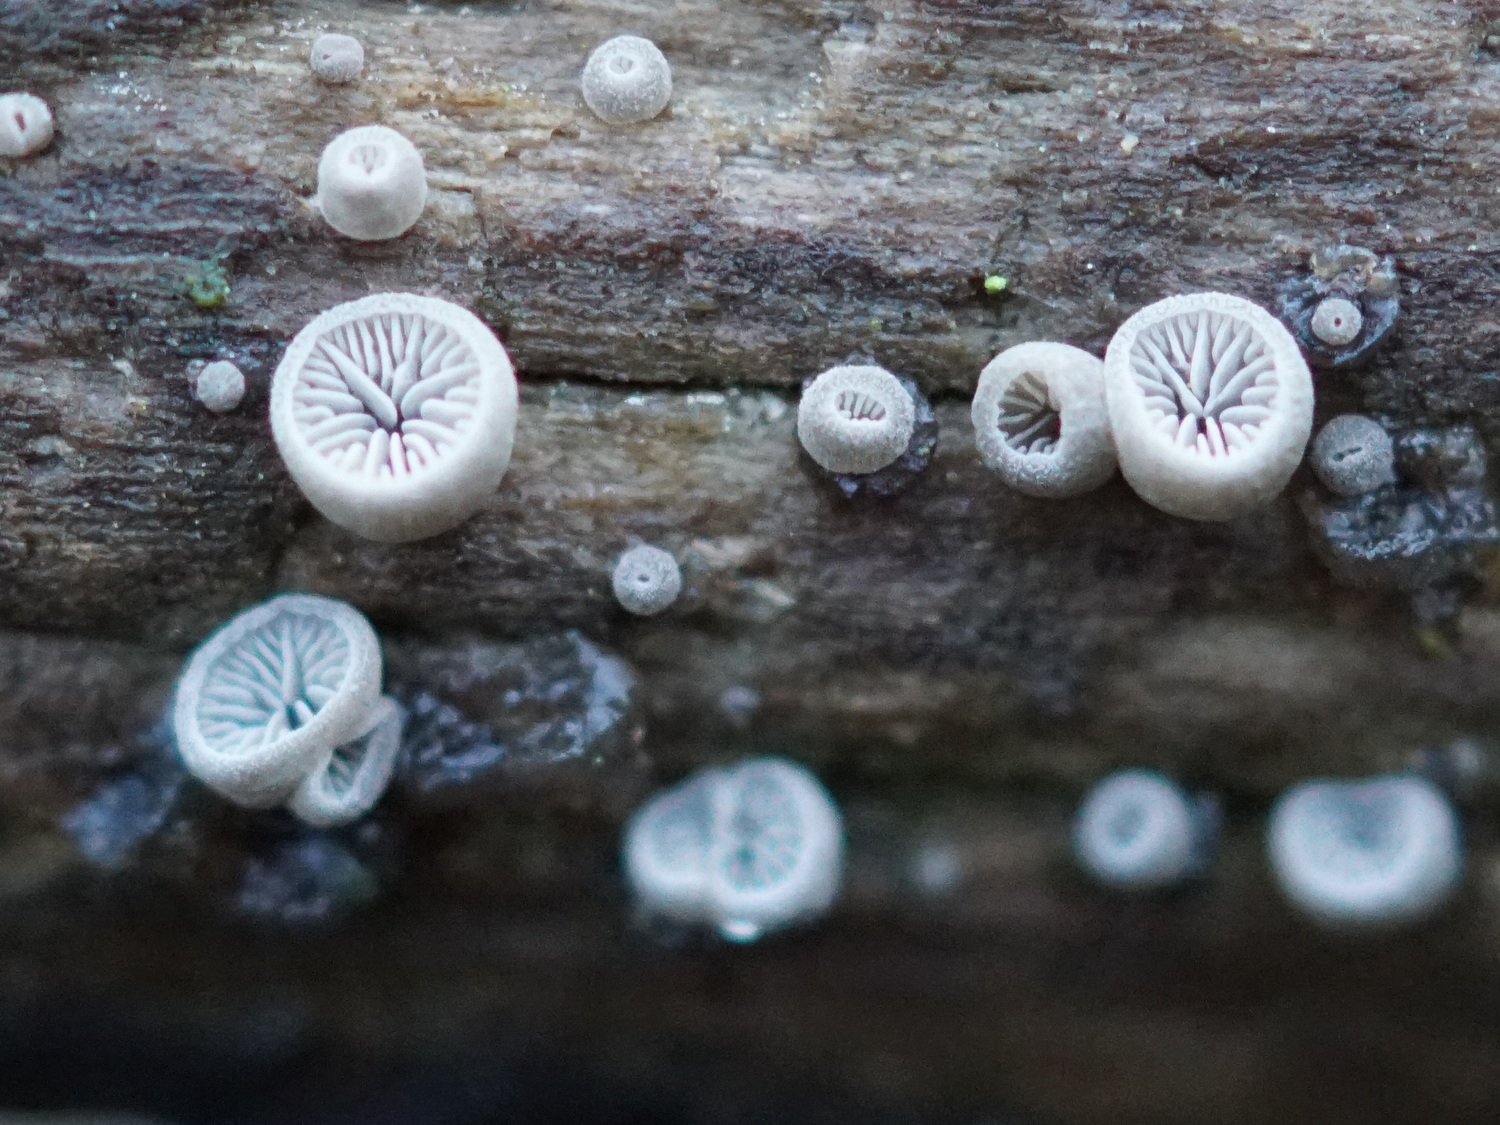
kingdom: Fungi
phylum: Basidiomycota
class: Agaricomycetes
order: Agaricales
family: Pleurotaceae
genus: Resupinatus
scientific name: Resupinatus applicatus
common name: lysfiltet barkhat
